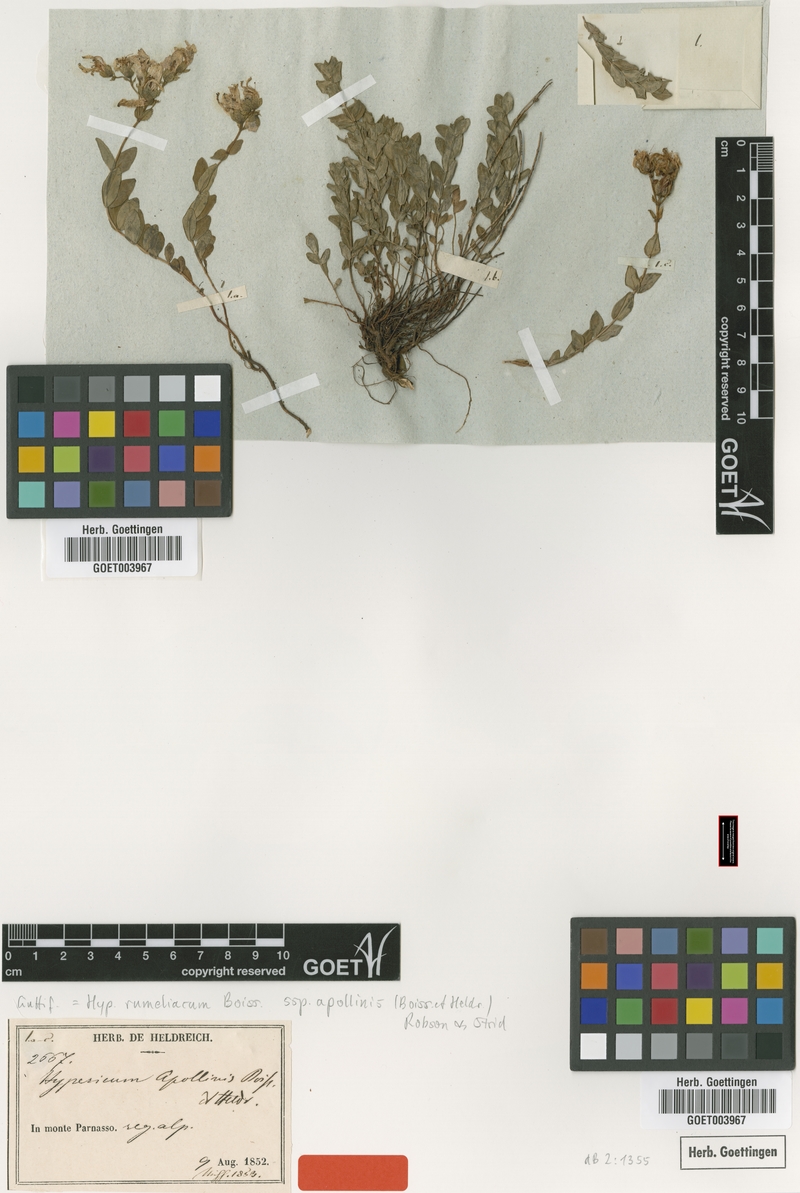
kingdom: Plantae
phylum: Tracheophyta
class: Magnoliopsida
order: Malpighiales
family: Hypericaceae
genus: Hypericum
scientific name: Hypericum rumeliacum
